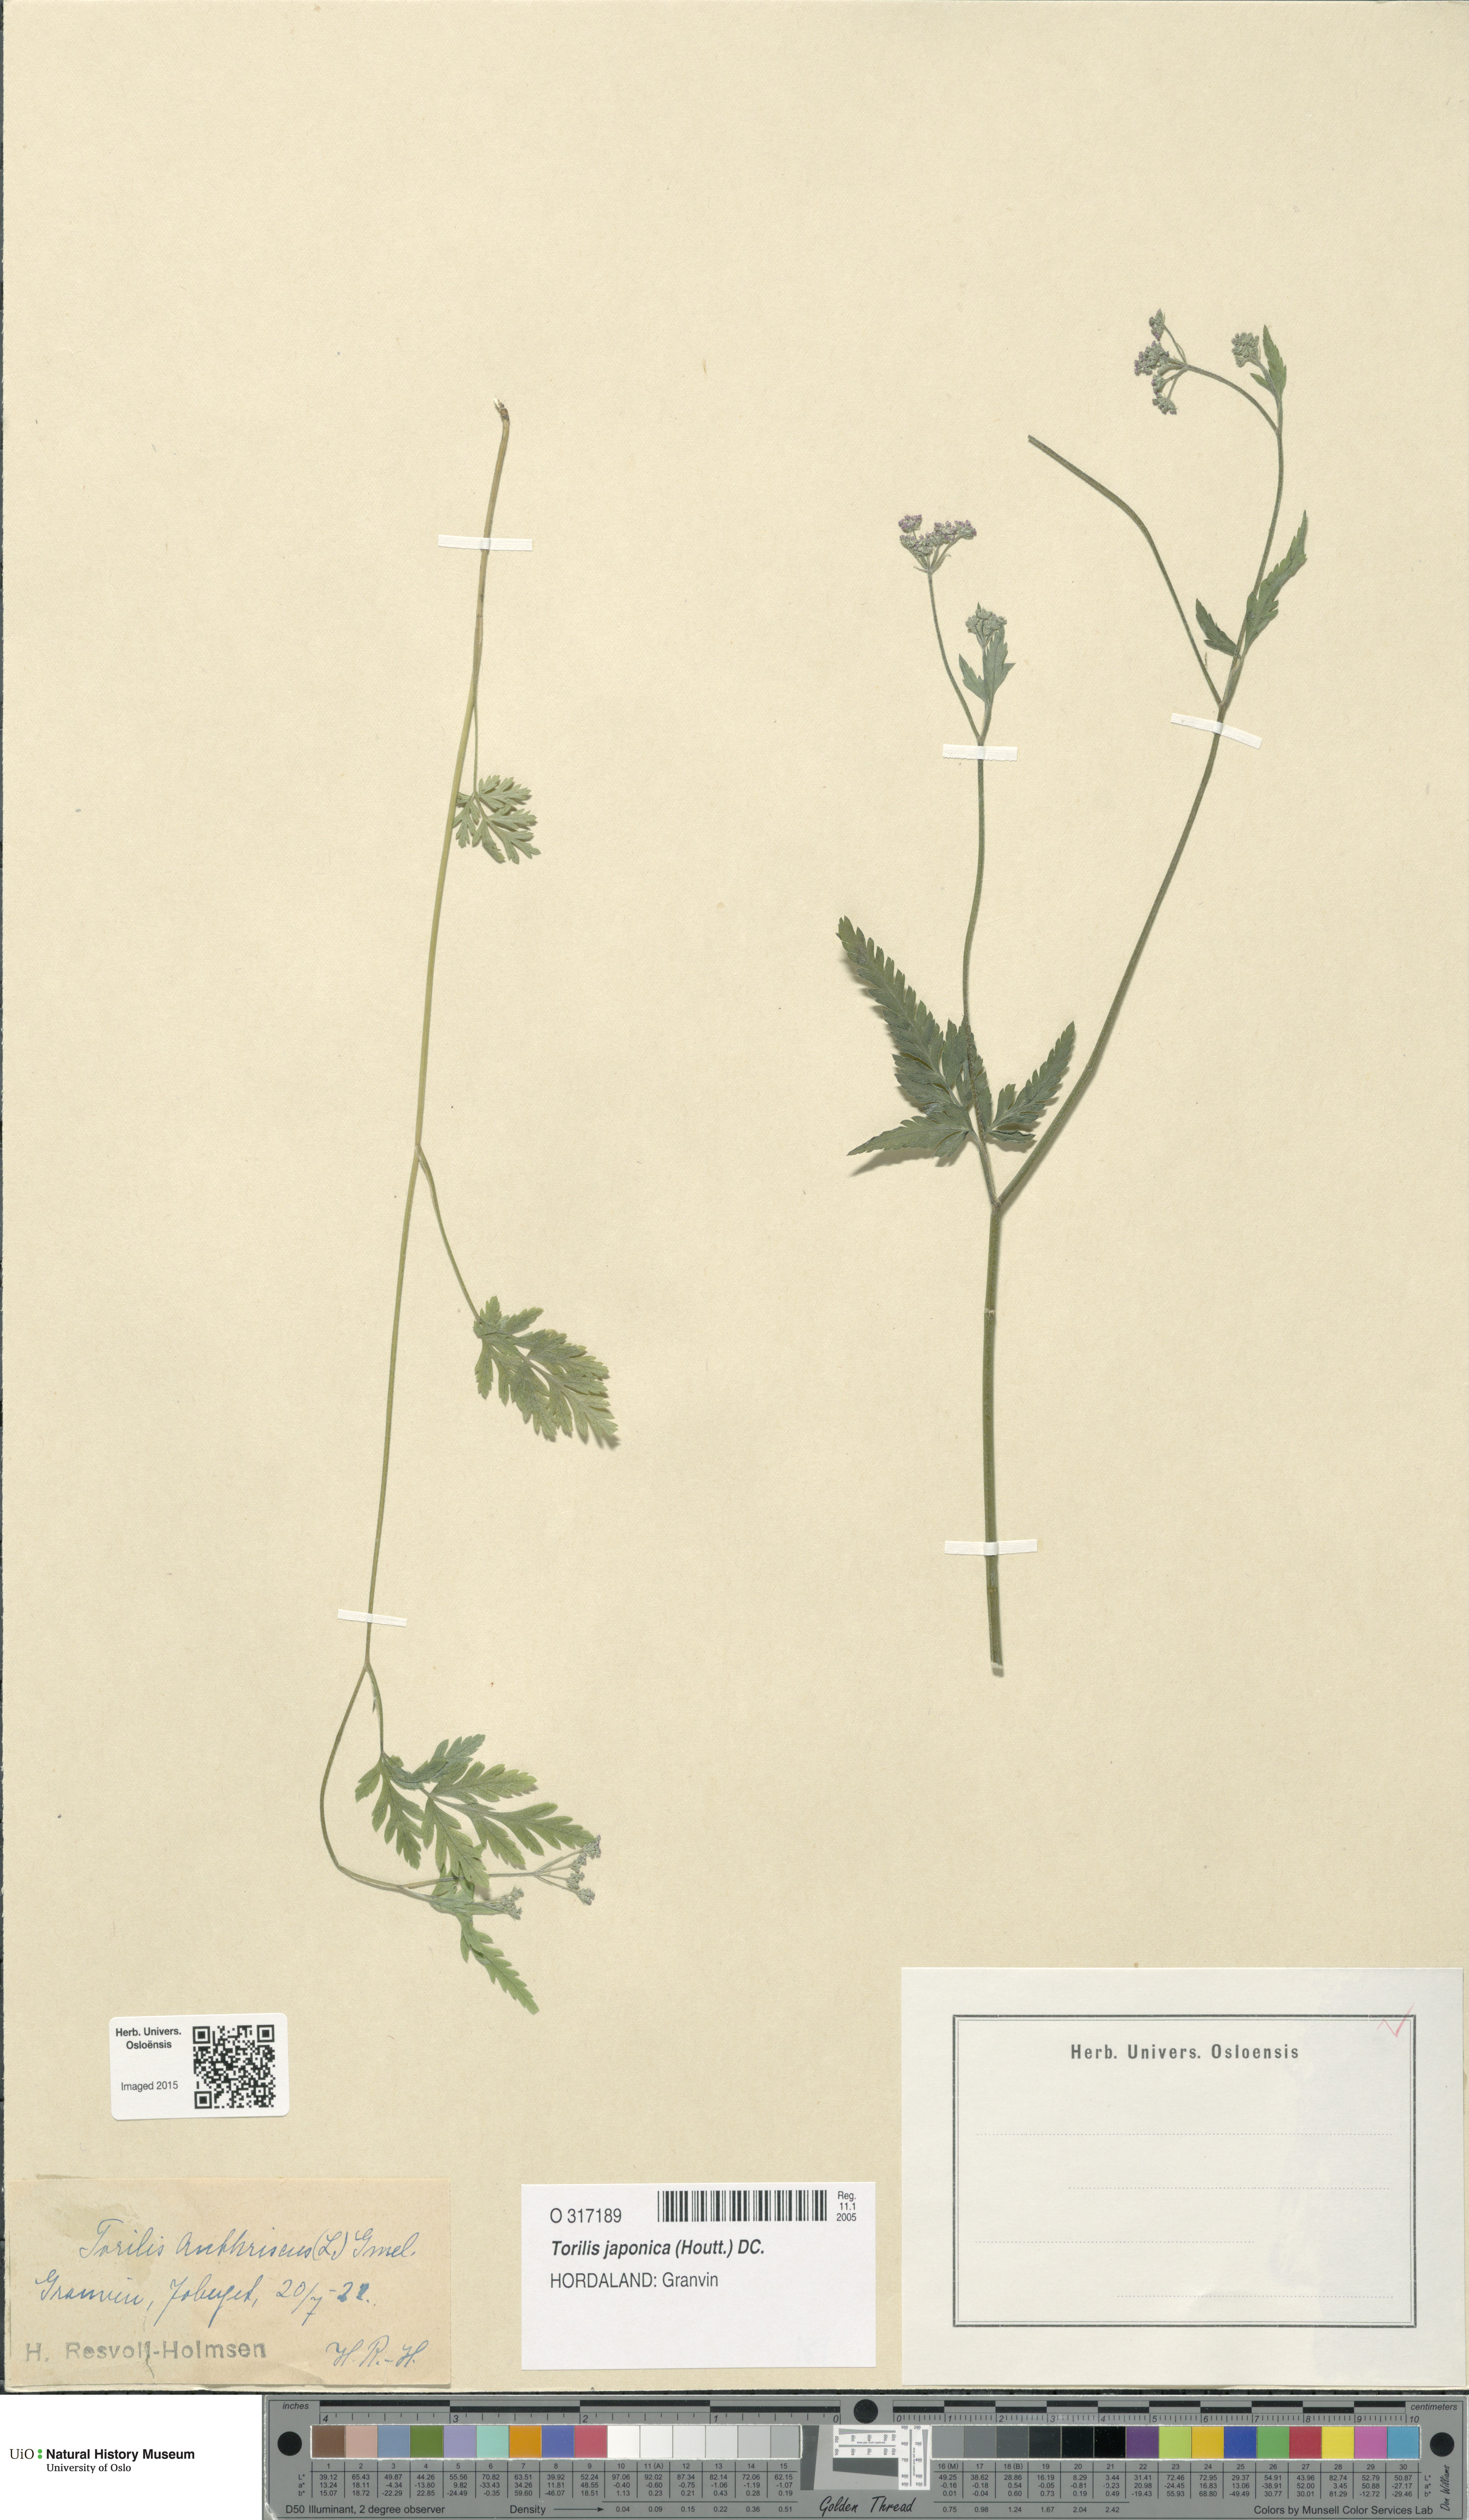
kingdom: Plantae
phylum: Tracheophyta
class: Magnoliopsida
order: Apiales
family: Apiaceae
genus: Torilis
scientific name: Torilis japonica
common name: Upright hedge-parsley
